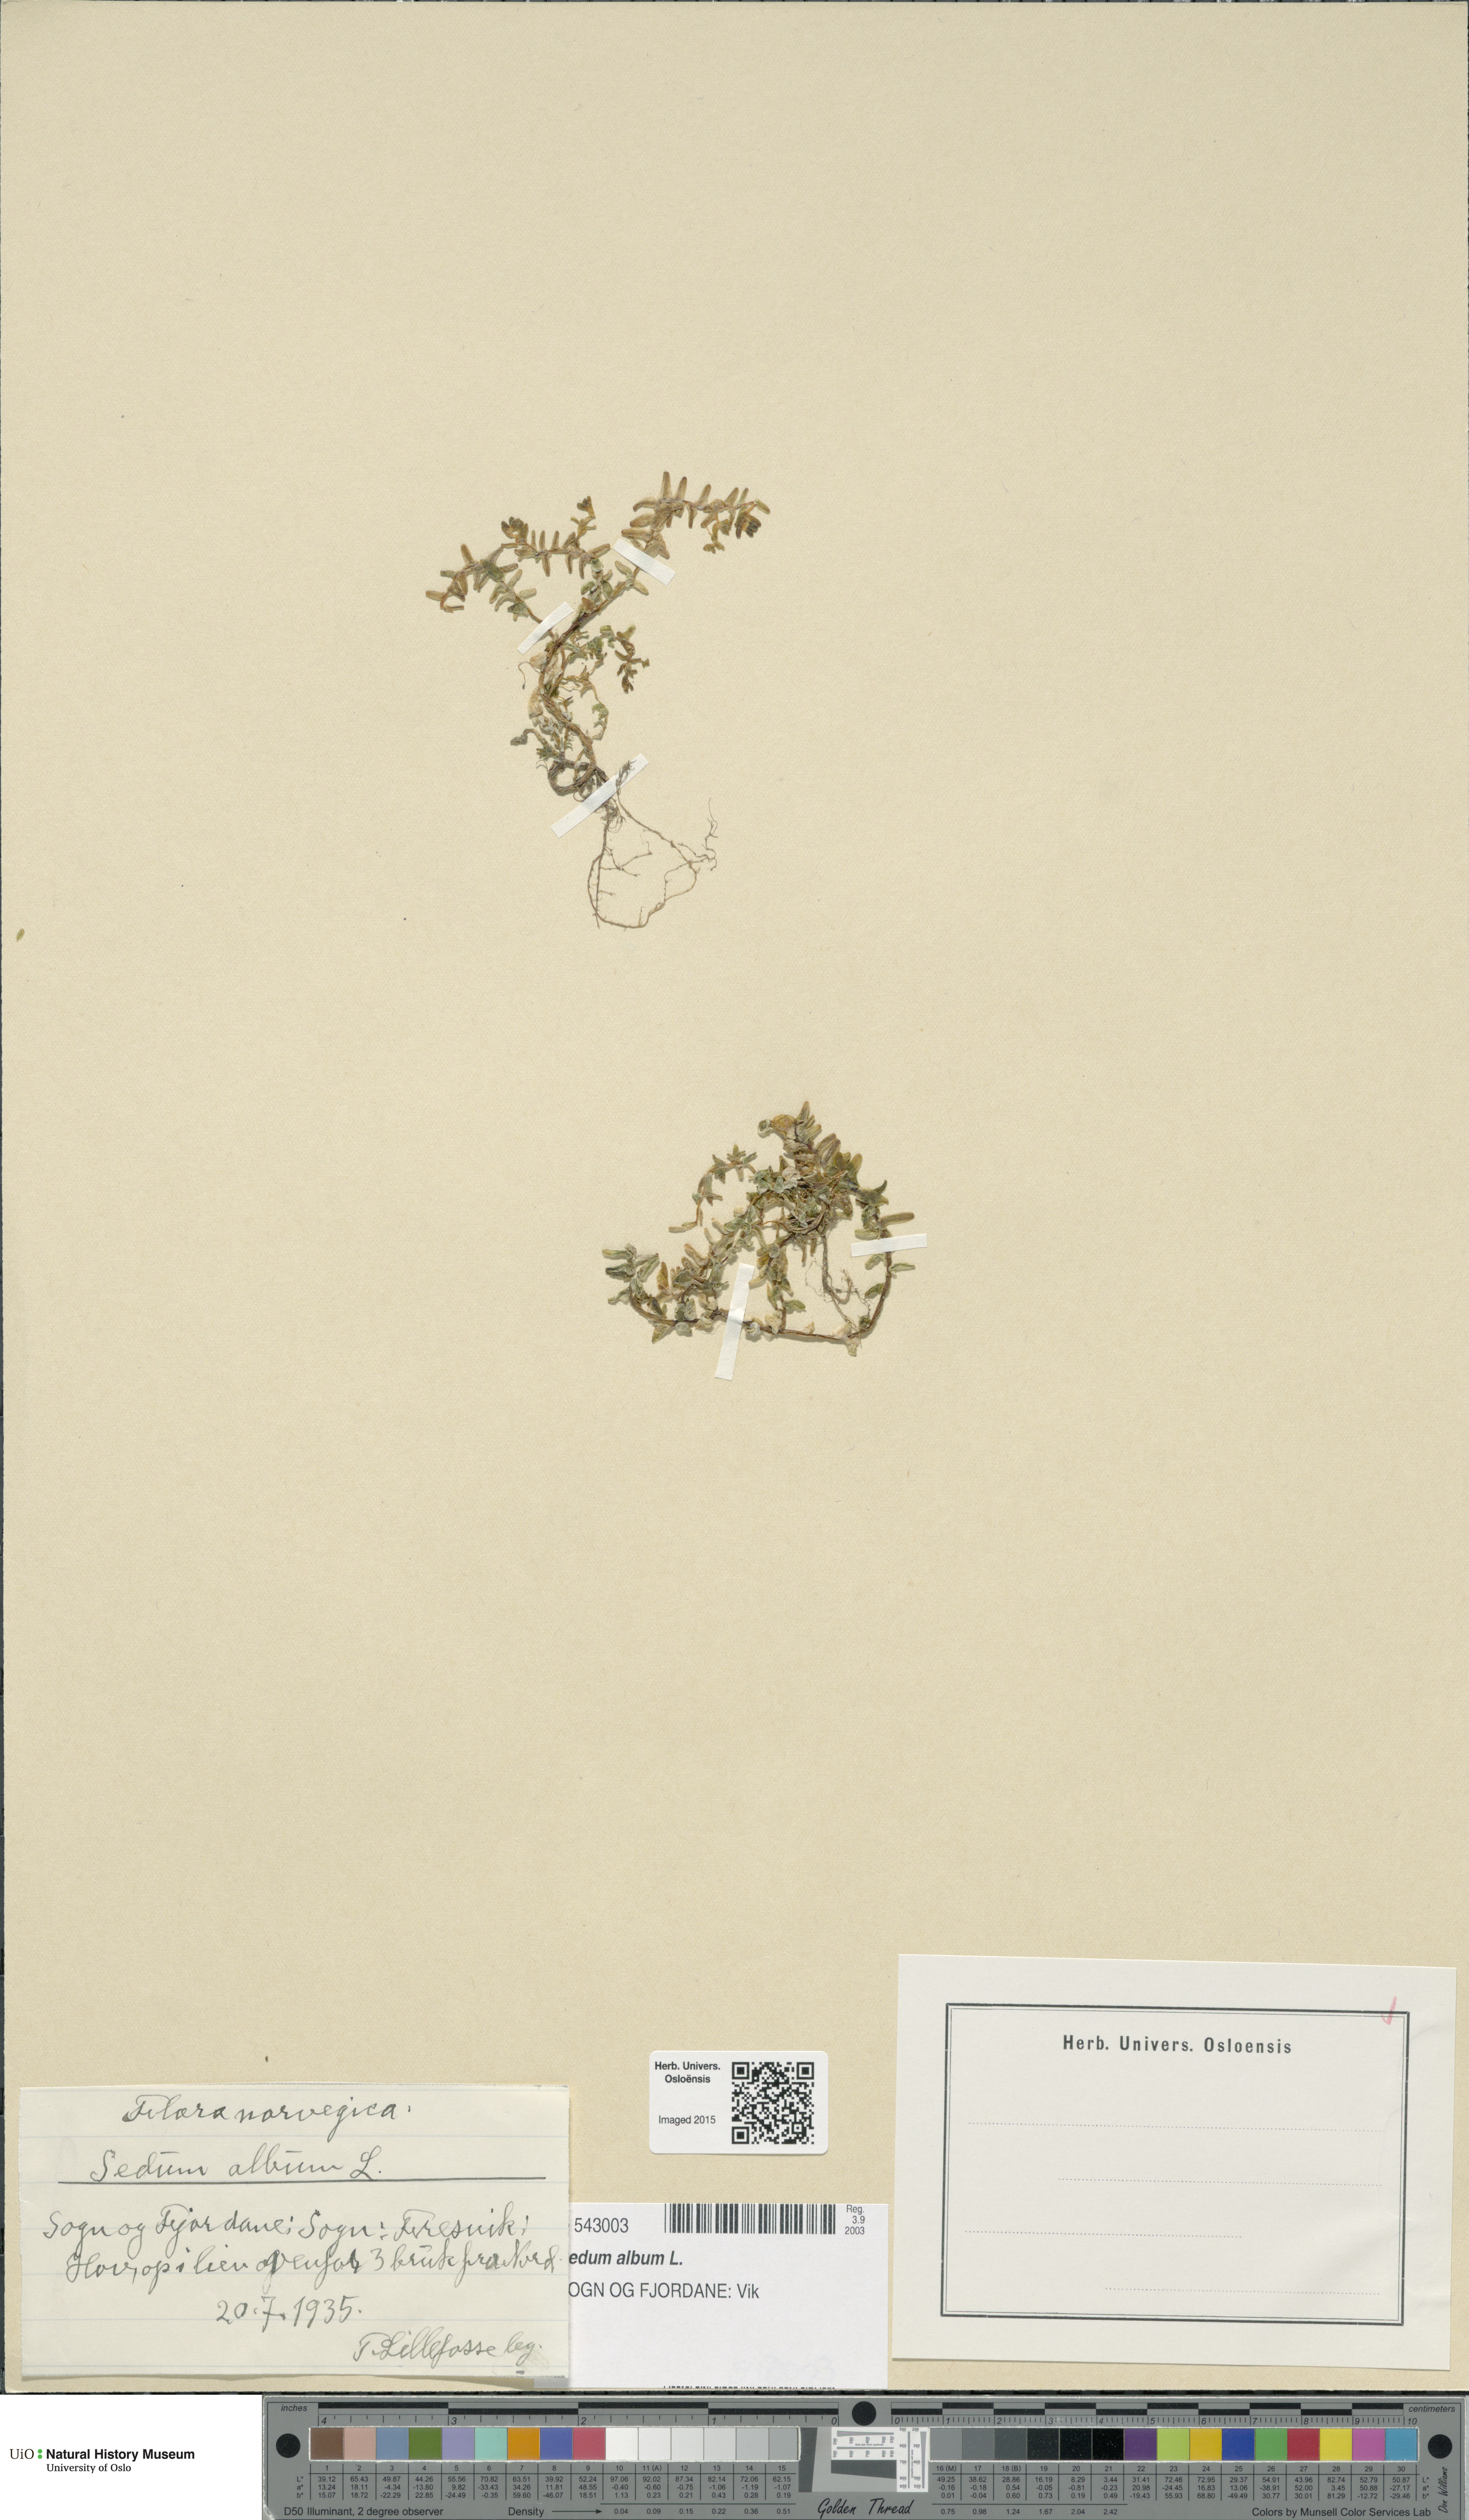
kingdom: Plantae
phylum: Tracheophyta
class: Magnoliopsida
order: Saxifragales
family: Crassulaceae
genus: Sedum
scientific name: Sedum album
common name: White stonecrop
